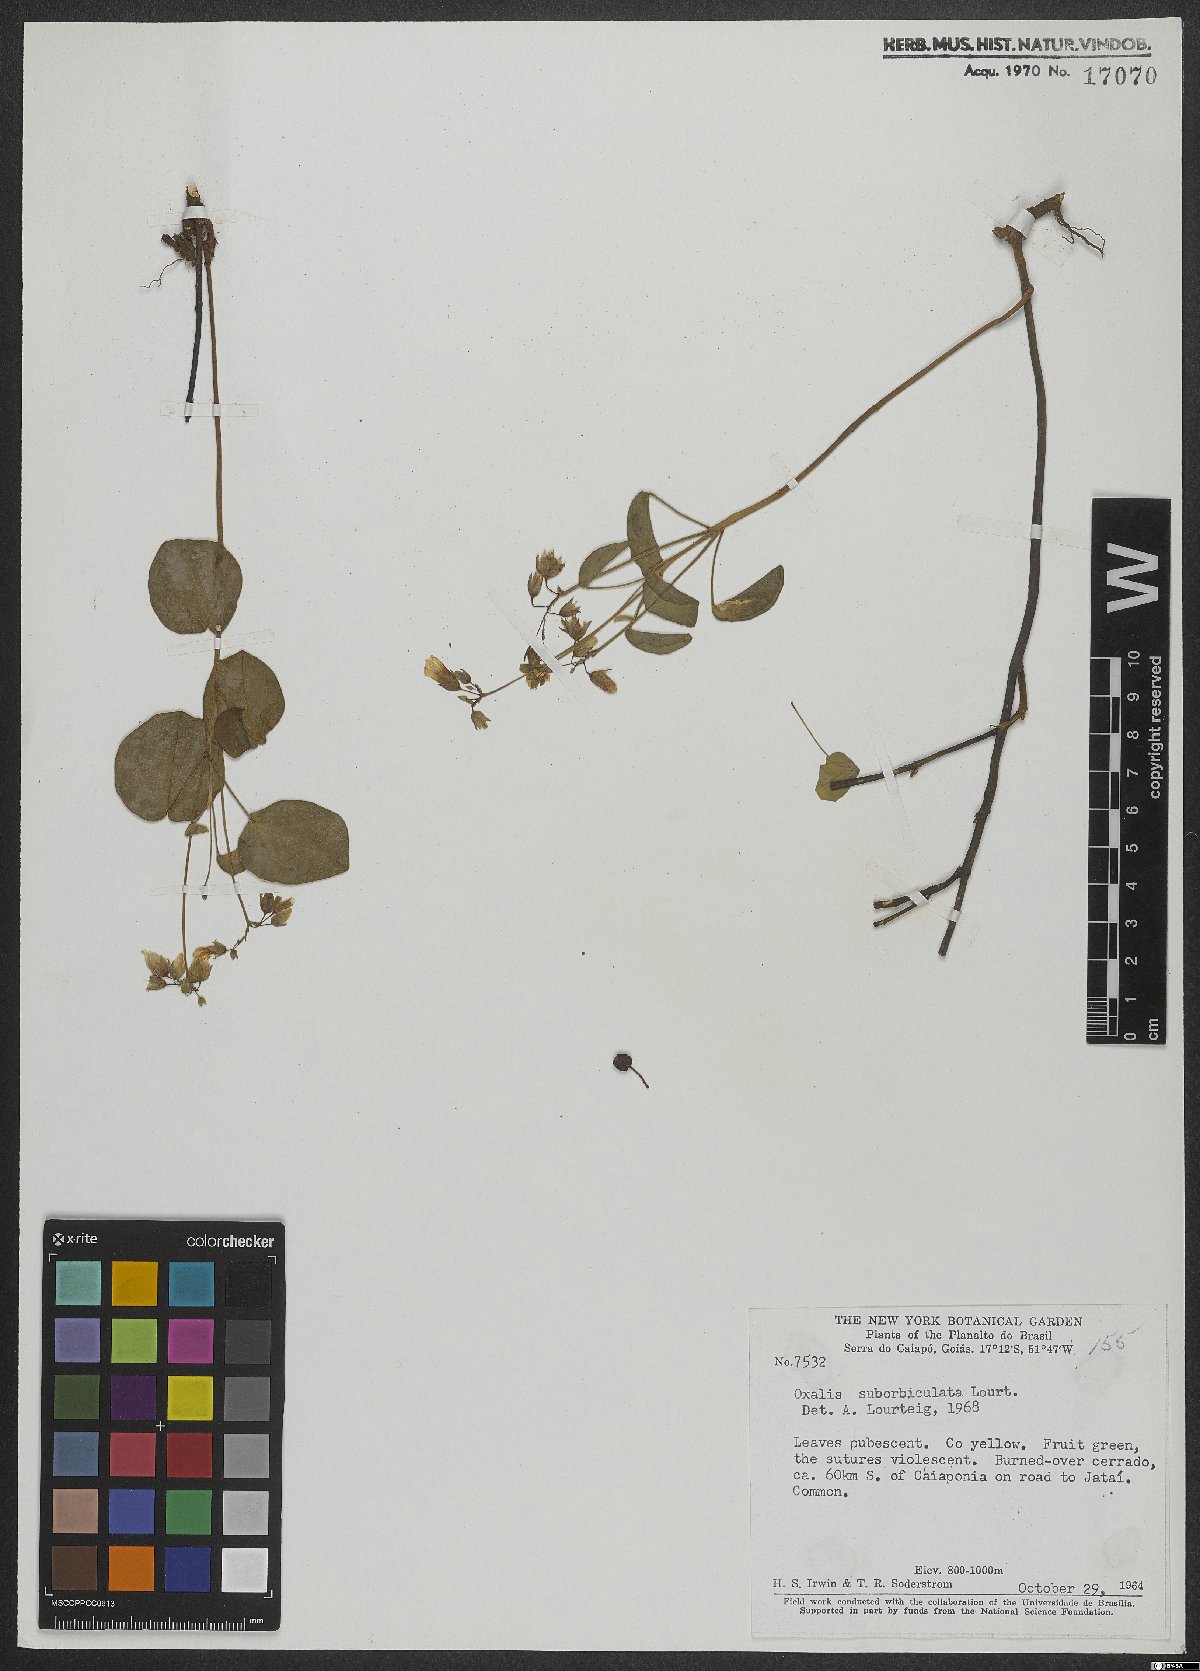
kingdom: Plantae
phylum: Tracheophyta
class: Magnoliopsida
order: Oxalidales
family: Oxalidaceae
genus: Oxalis
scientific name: Oxalis suborbiculata
